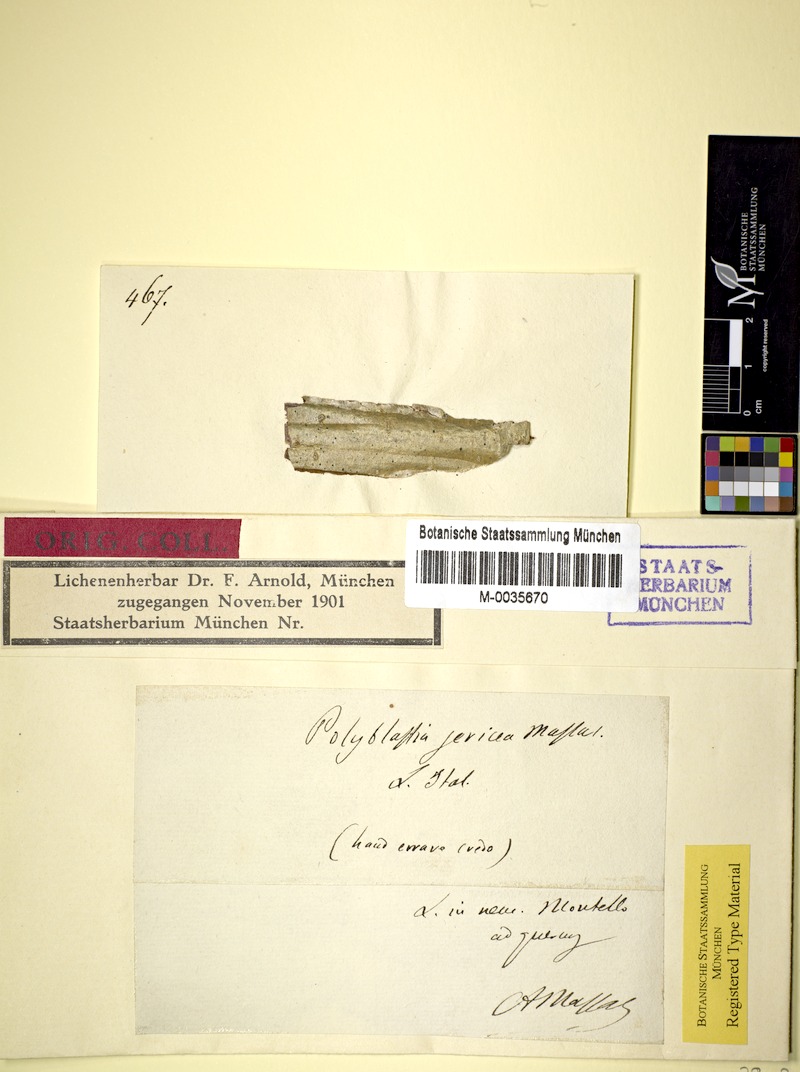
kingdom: Fungi
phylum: Ascomycota
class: Lecanoromycetes
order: Ostropales
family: Thelenellaceae
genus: Julella
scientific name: Julella sericea
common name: Silky white stain lichen
